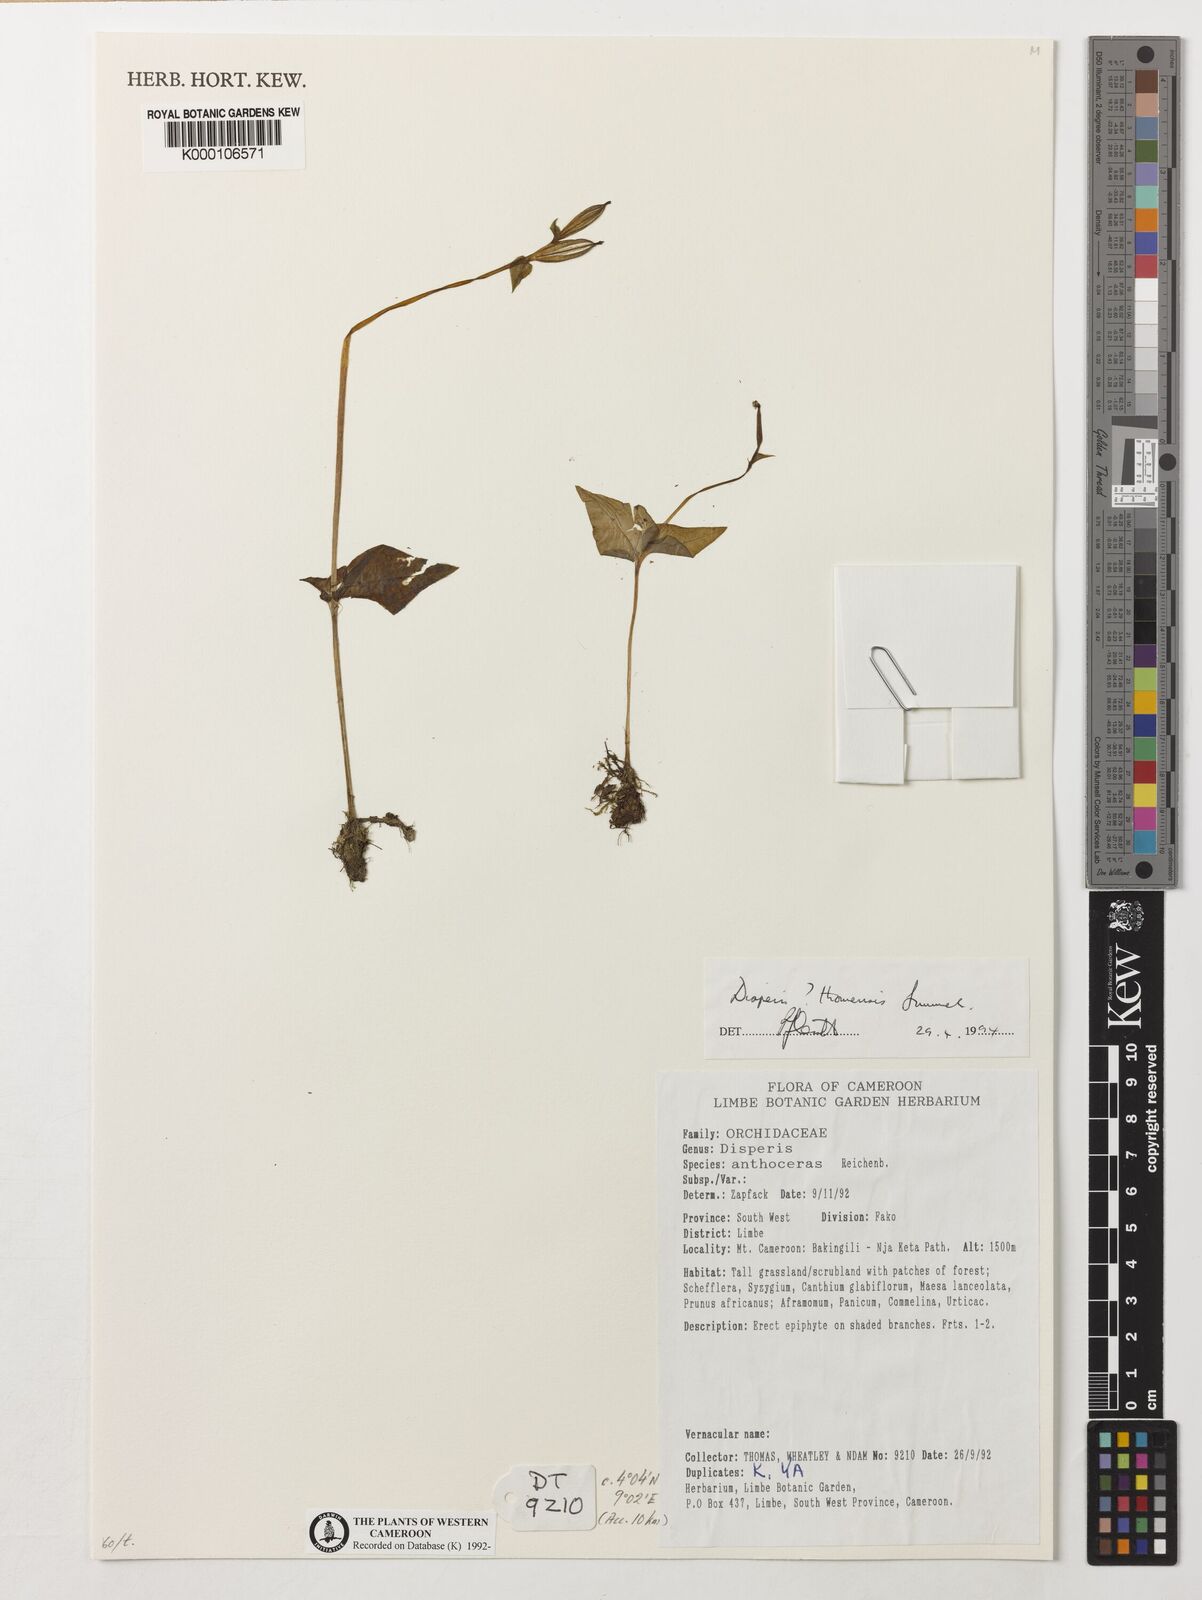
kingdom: Plantae
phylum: Tracheophyta
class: Liliopsida
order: Asparagales
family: Orchidaceae
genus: Disperis
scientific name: Disperis thomensis
